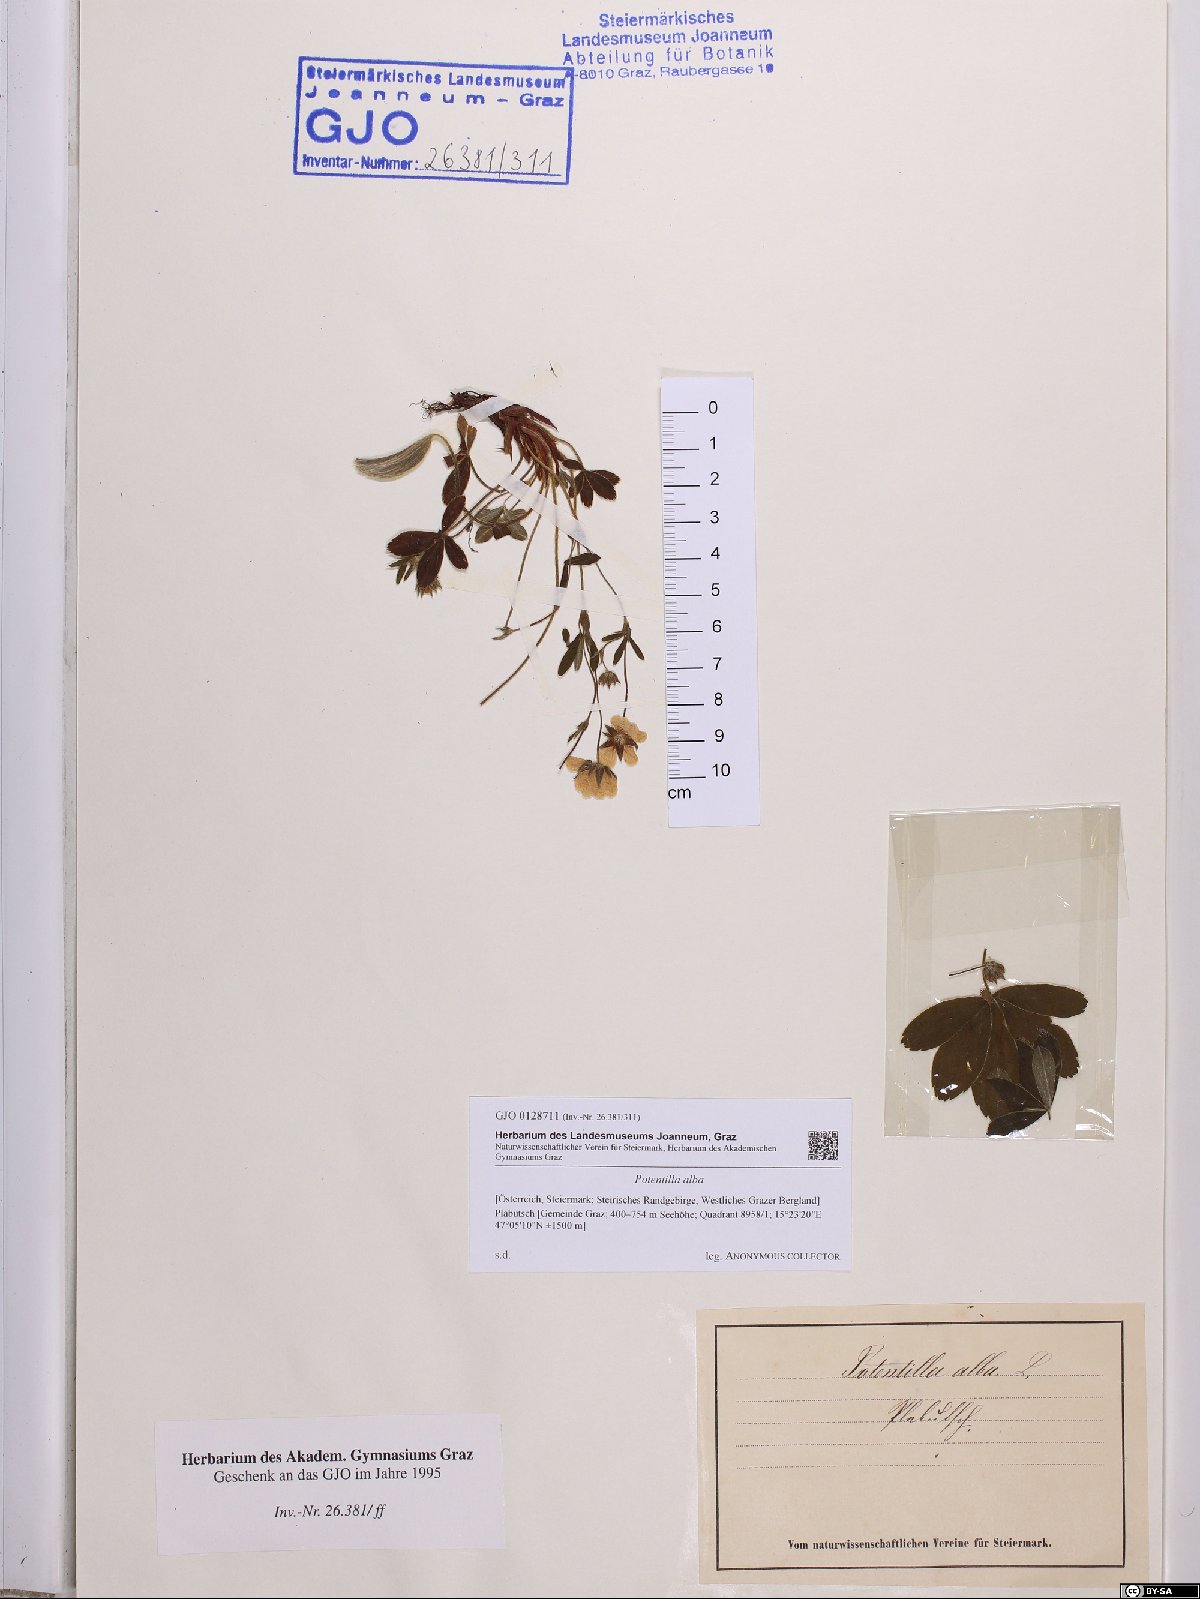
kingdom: Plantae
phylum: Tracheophyta
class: Magnoliopsida
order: Rosales
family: Rosaceae
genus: Potentilla
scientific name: Potentilla alba
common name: White cinquefoil
